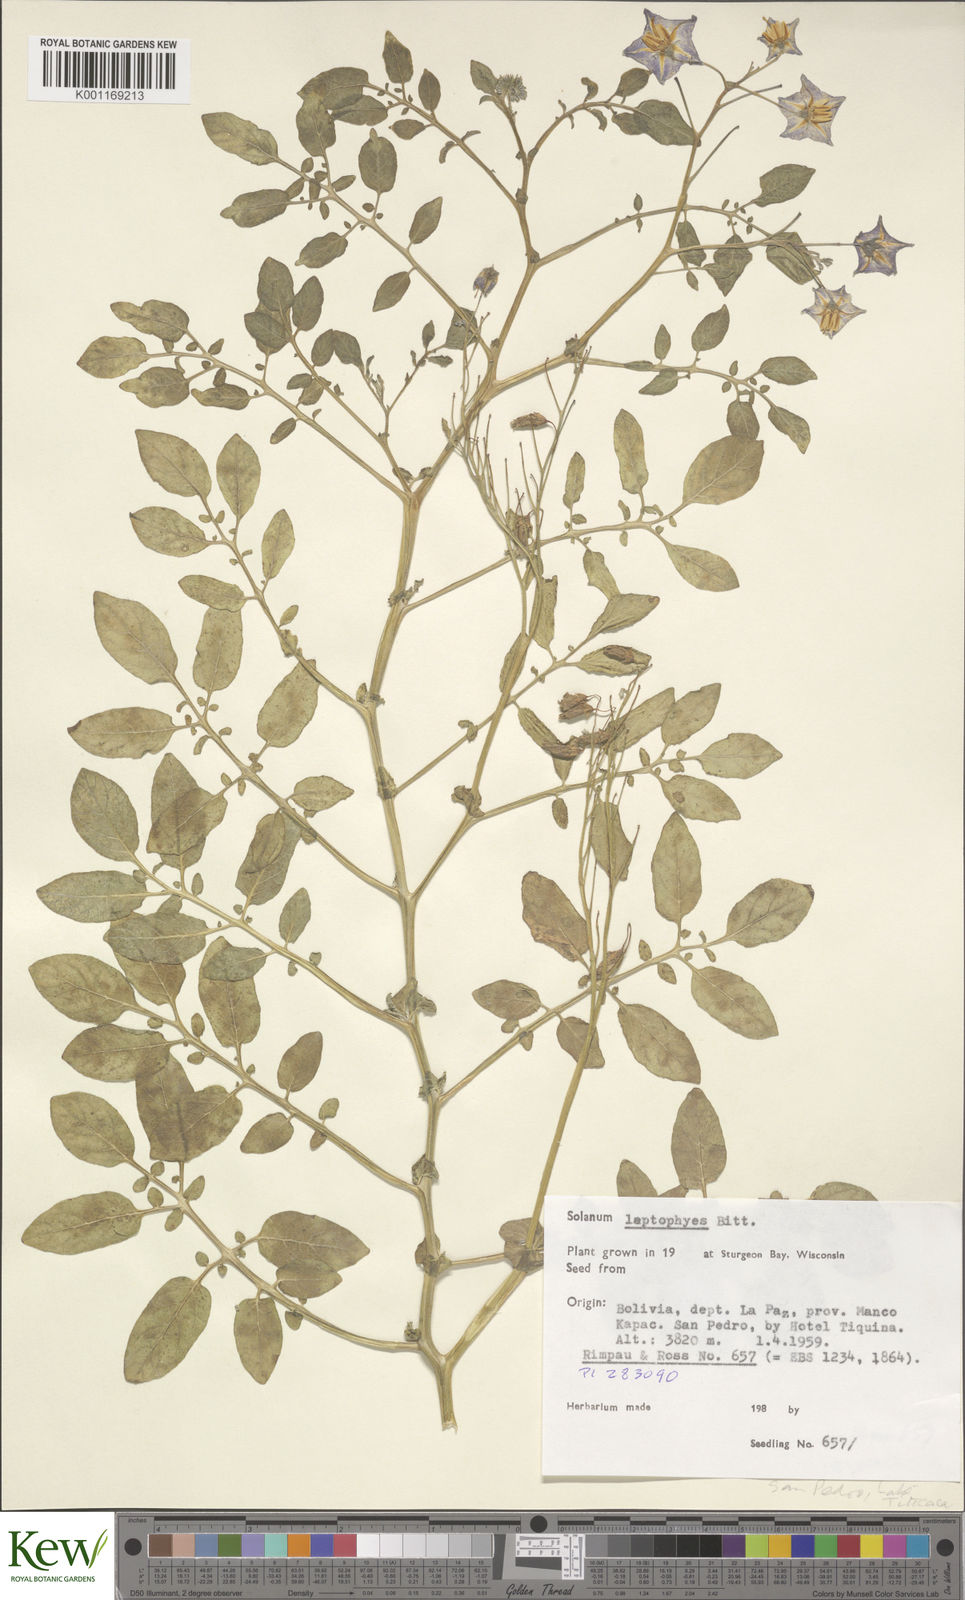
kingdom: Plantae
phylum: Tracheophyta
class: Magnoliopsida
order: Solanales
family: Solanaceae
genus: Solanum
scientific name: Solanum brevicaule
